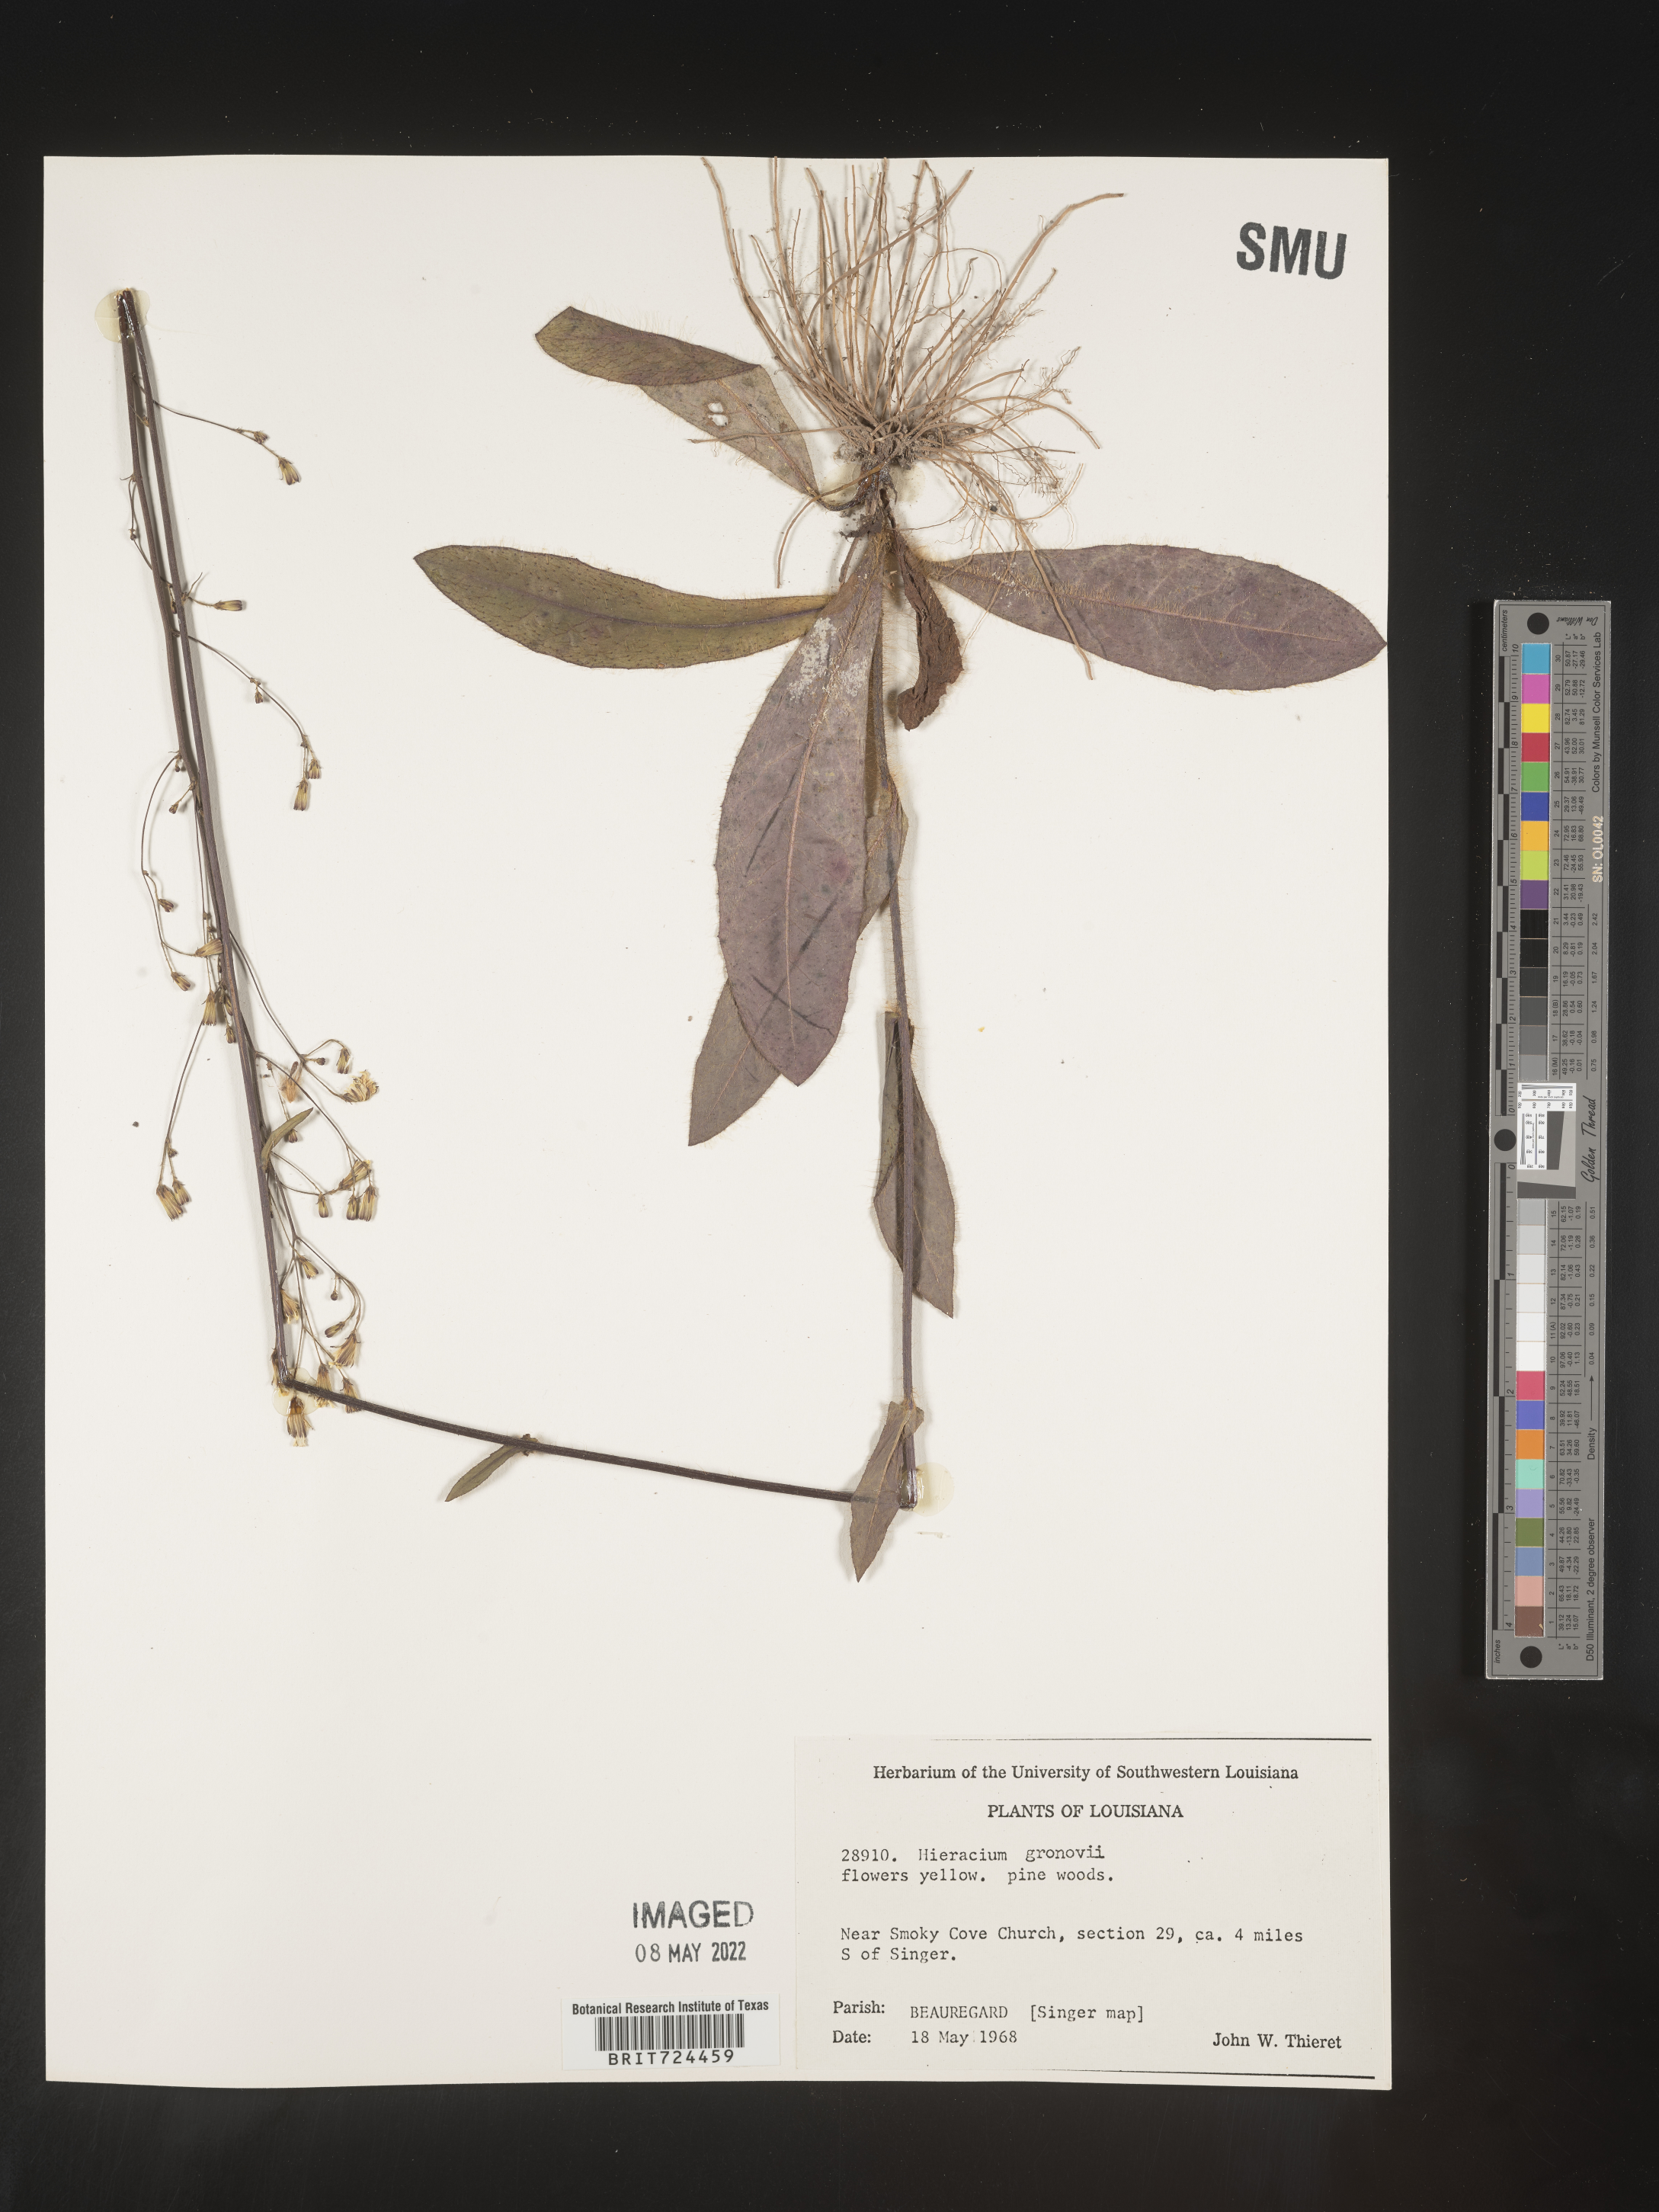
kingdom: Plantae
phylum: Tracheophyta
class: Magnoliopsida
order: Asterales
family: Asteraceae
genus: Hieracium
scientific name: Hieracium gronovii
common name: Beaked hawkweed
